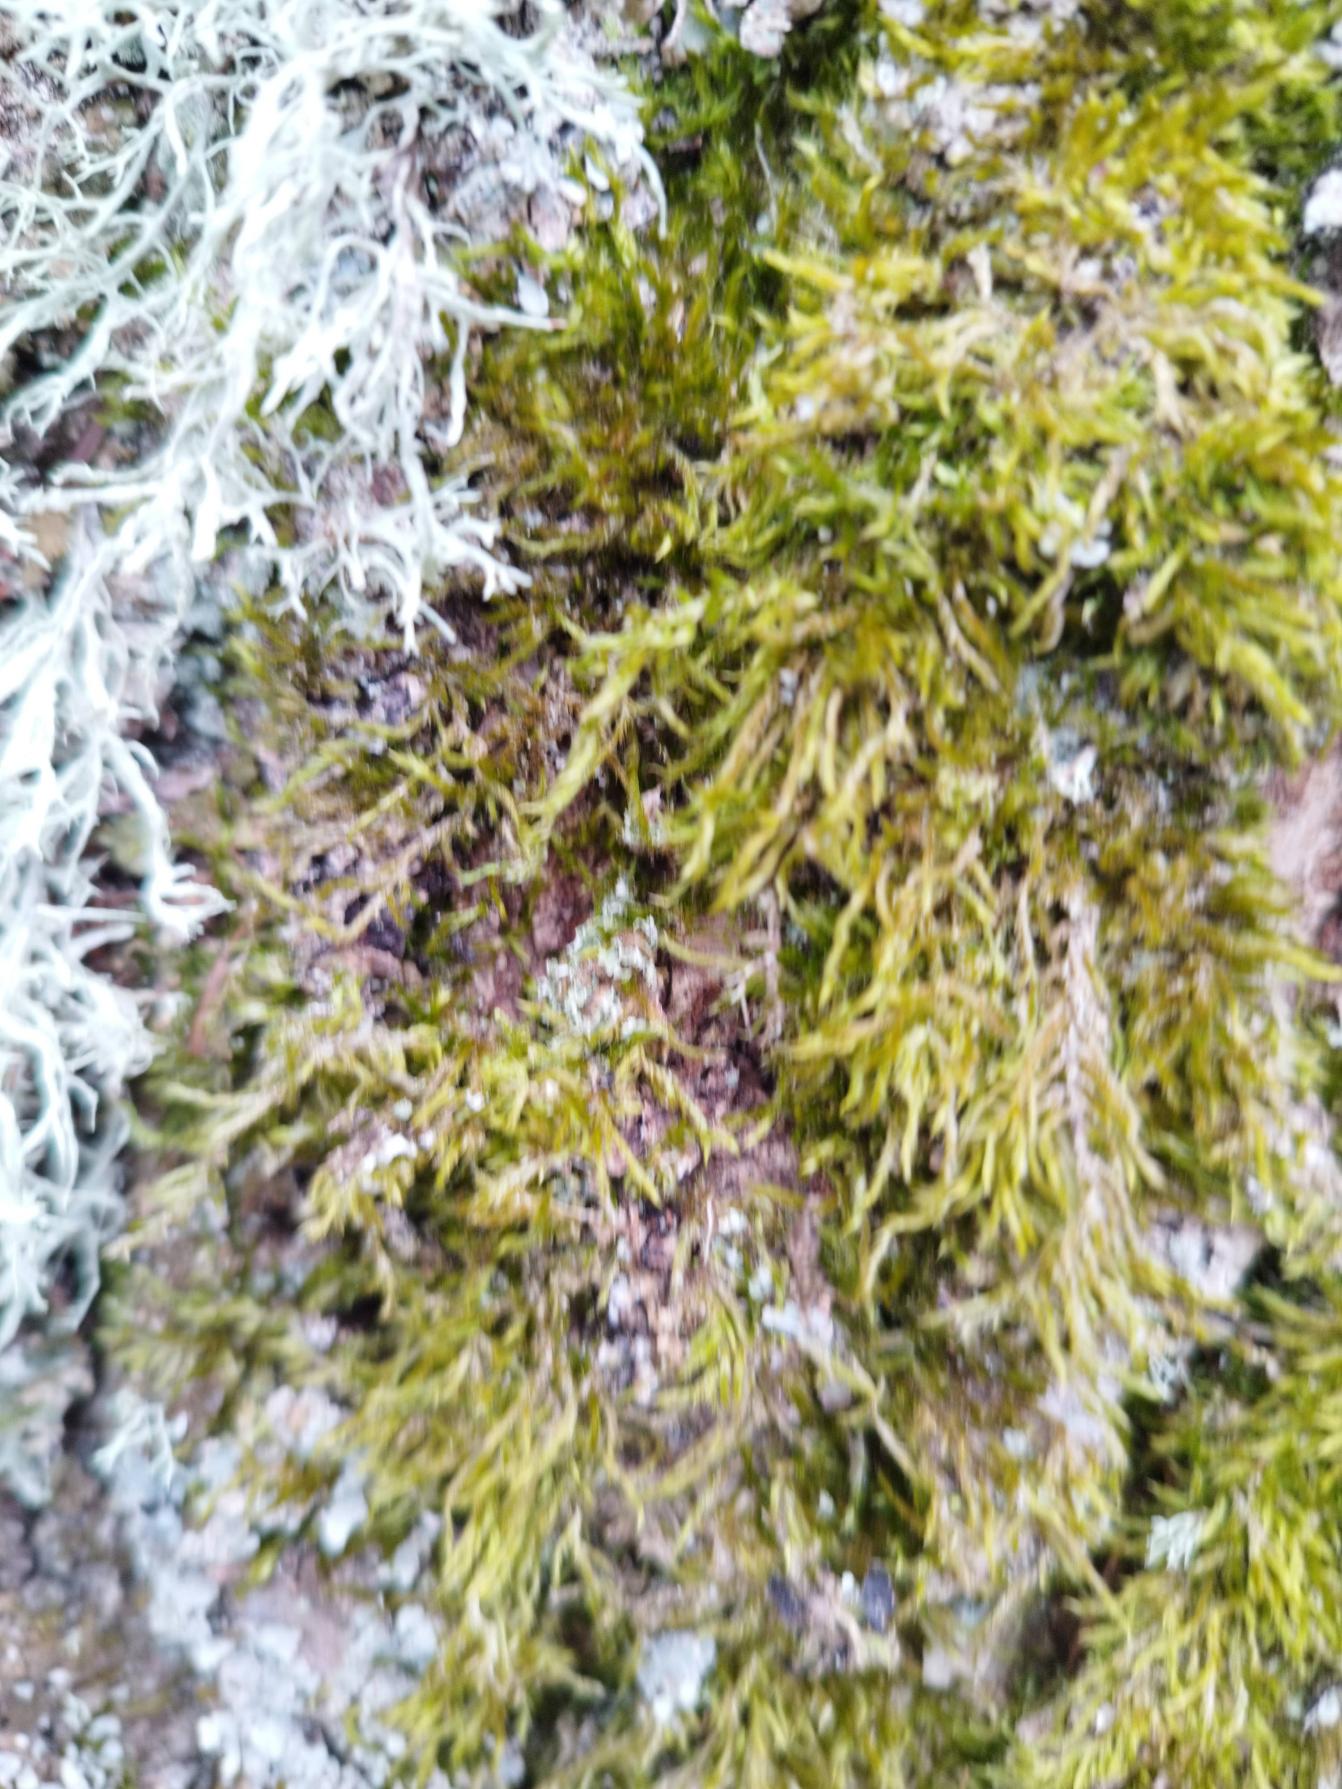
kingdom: Fungi
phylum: Ascomycota
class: Lecanoromycetes
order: Lecanorales
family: Parmeliaceae
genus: Evernia
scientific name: Evernia prunastri
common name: Almindelig slåenlav
